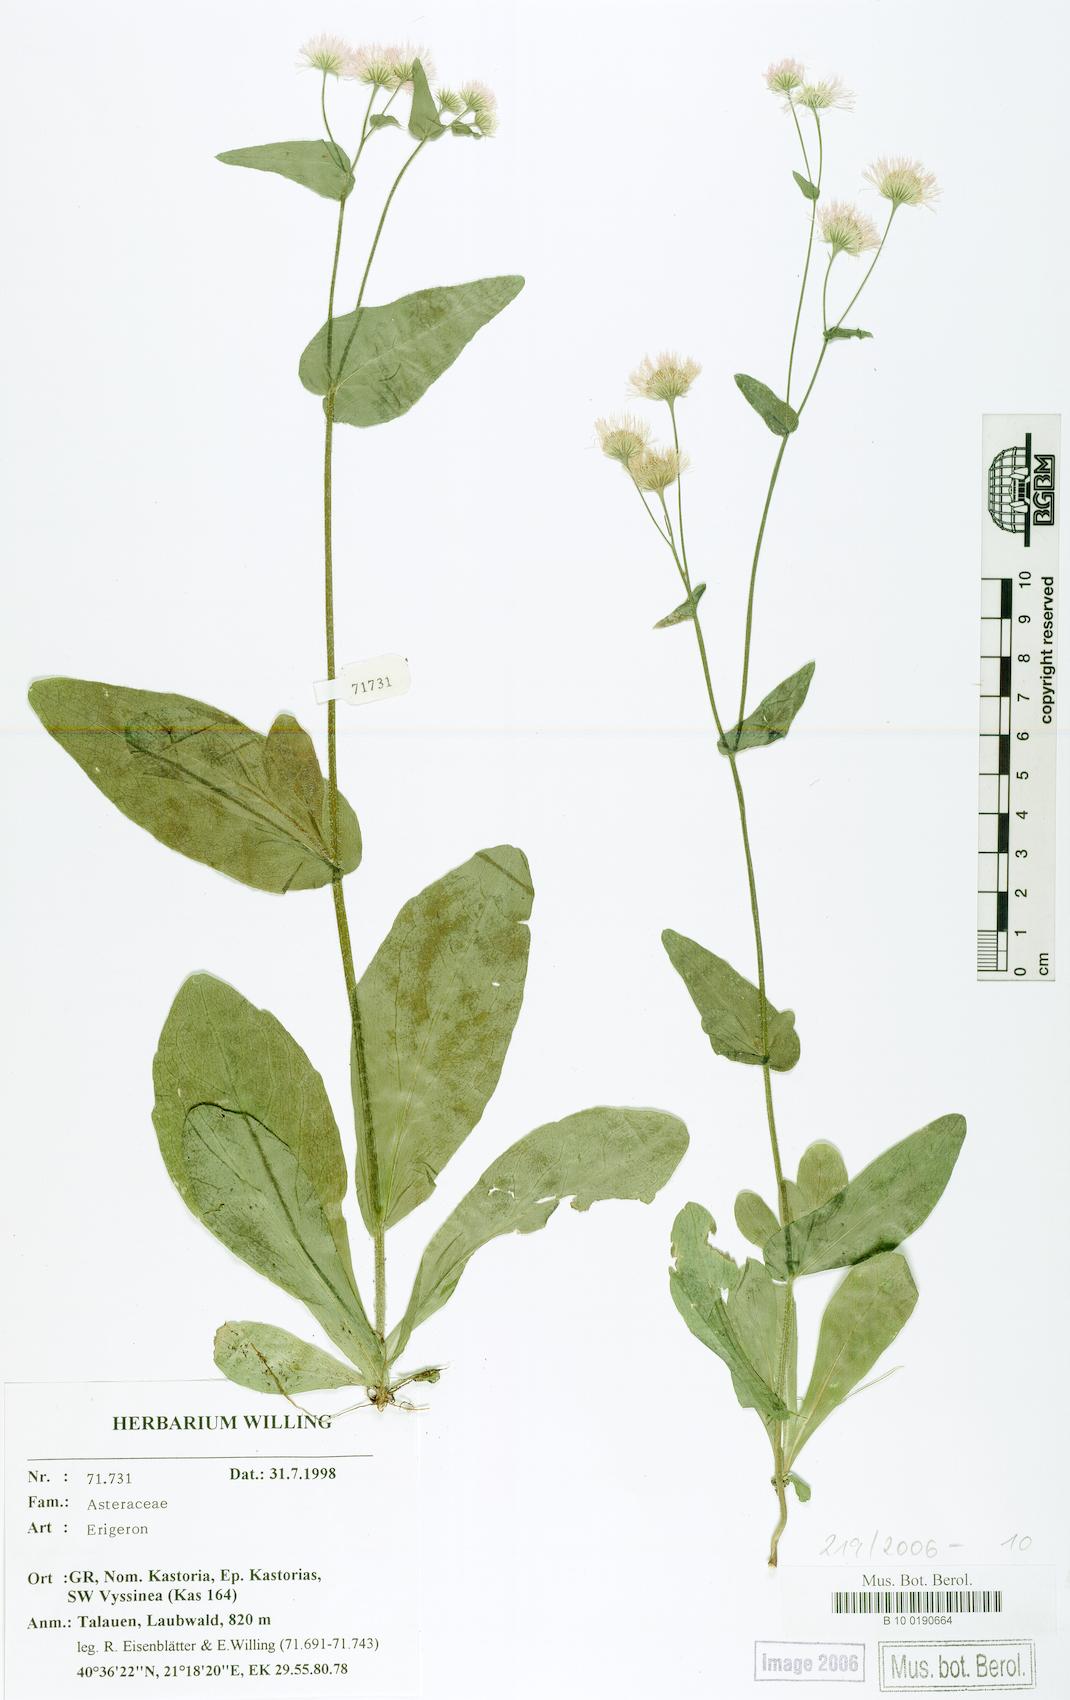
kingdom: Plantae
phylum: Tracheophyta
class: Magnoliopsida
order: Asterales
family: Asteraceae
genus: Erigeron
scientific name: Erigeron
